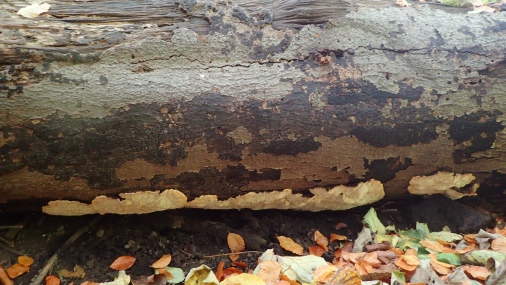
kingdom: Fungi
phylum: Basidiomycota
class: Agaricomycetes
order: Polyporales
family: Ischnodermataceae
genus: Ischnoderma
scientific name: Ischnoderma resinosum
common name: løv-tjæreporesvamp
